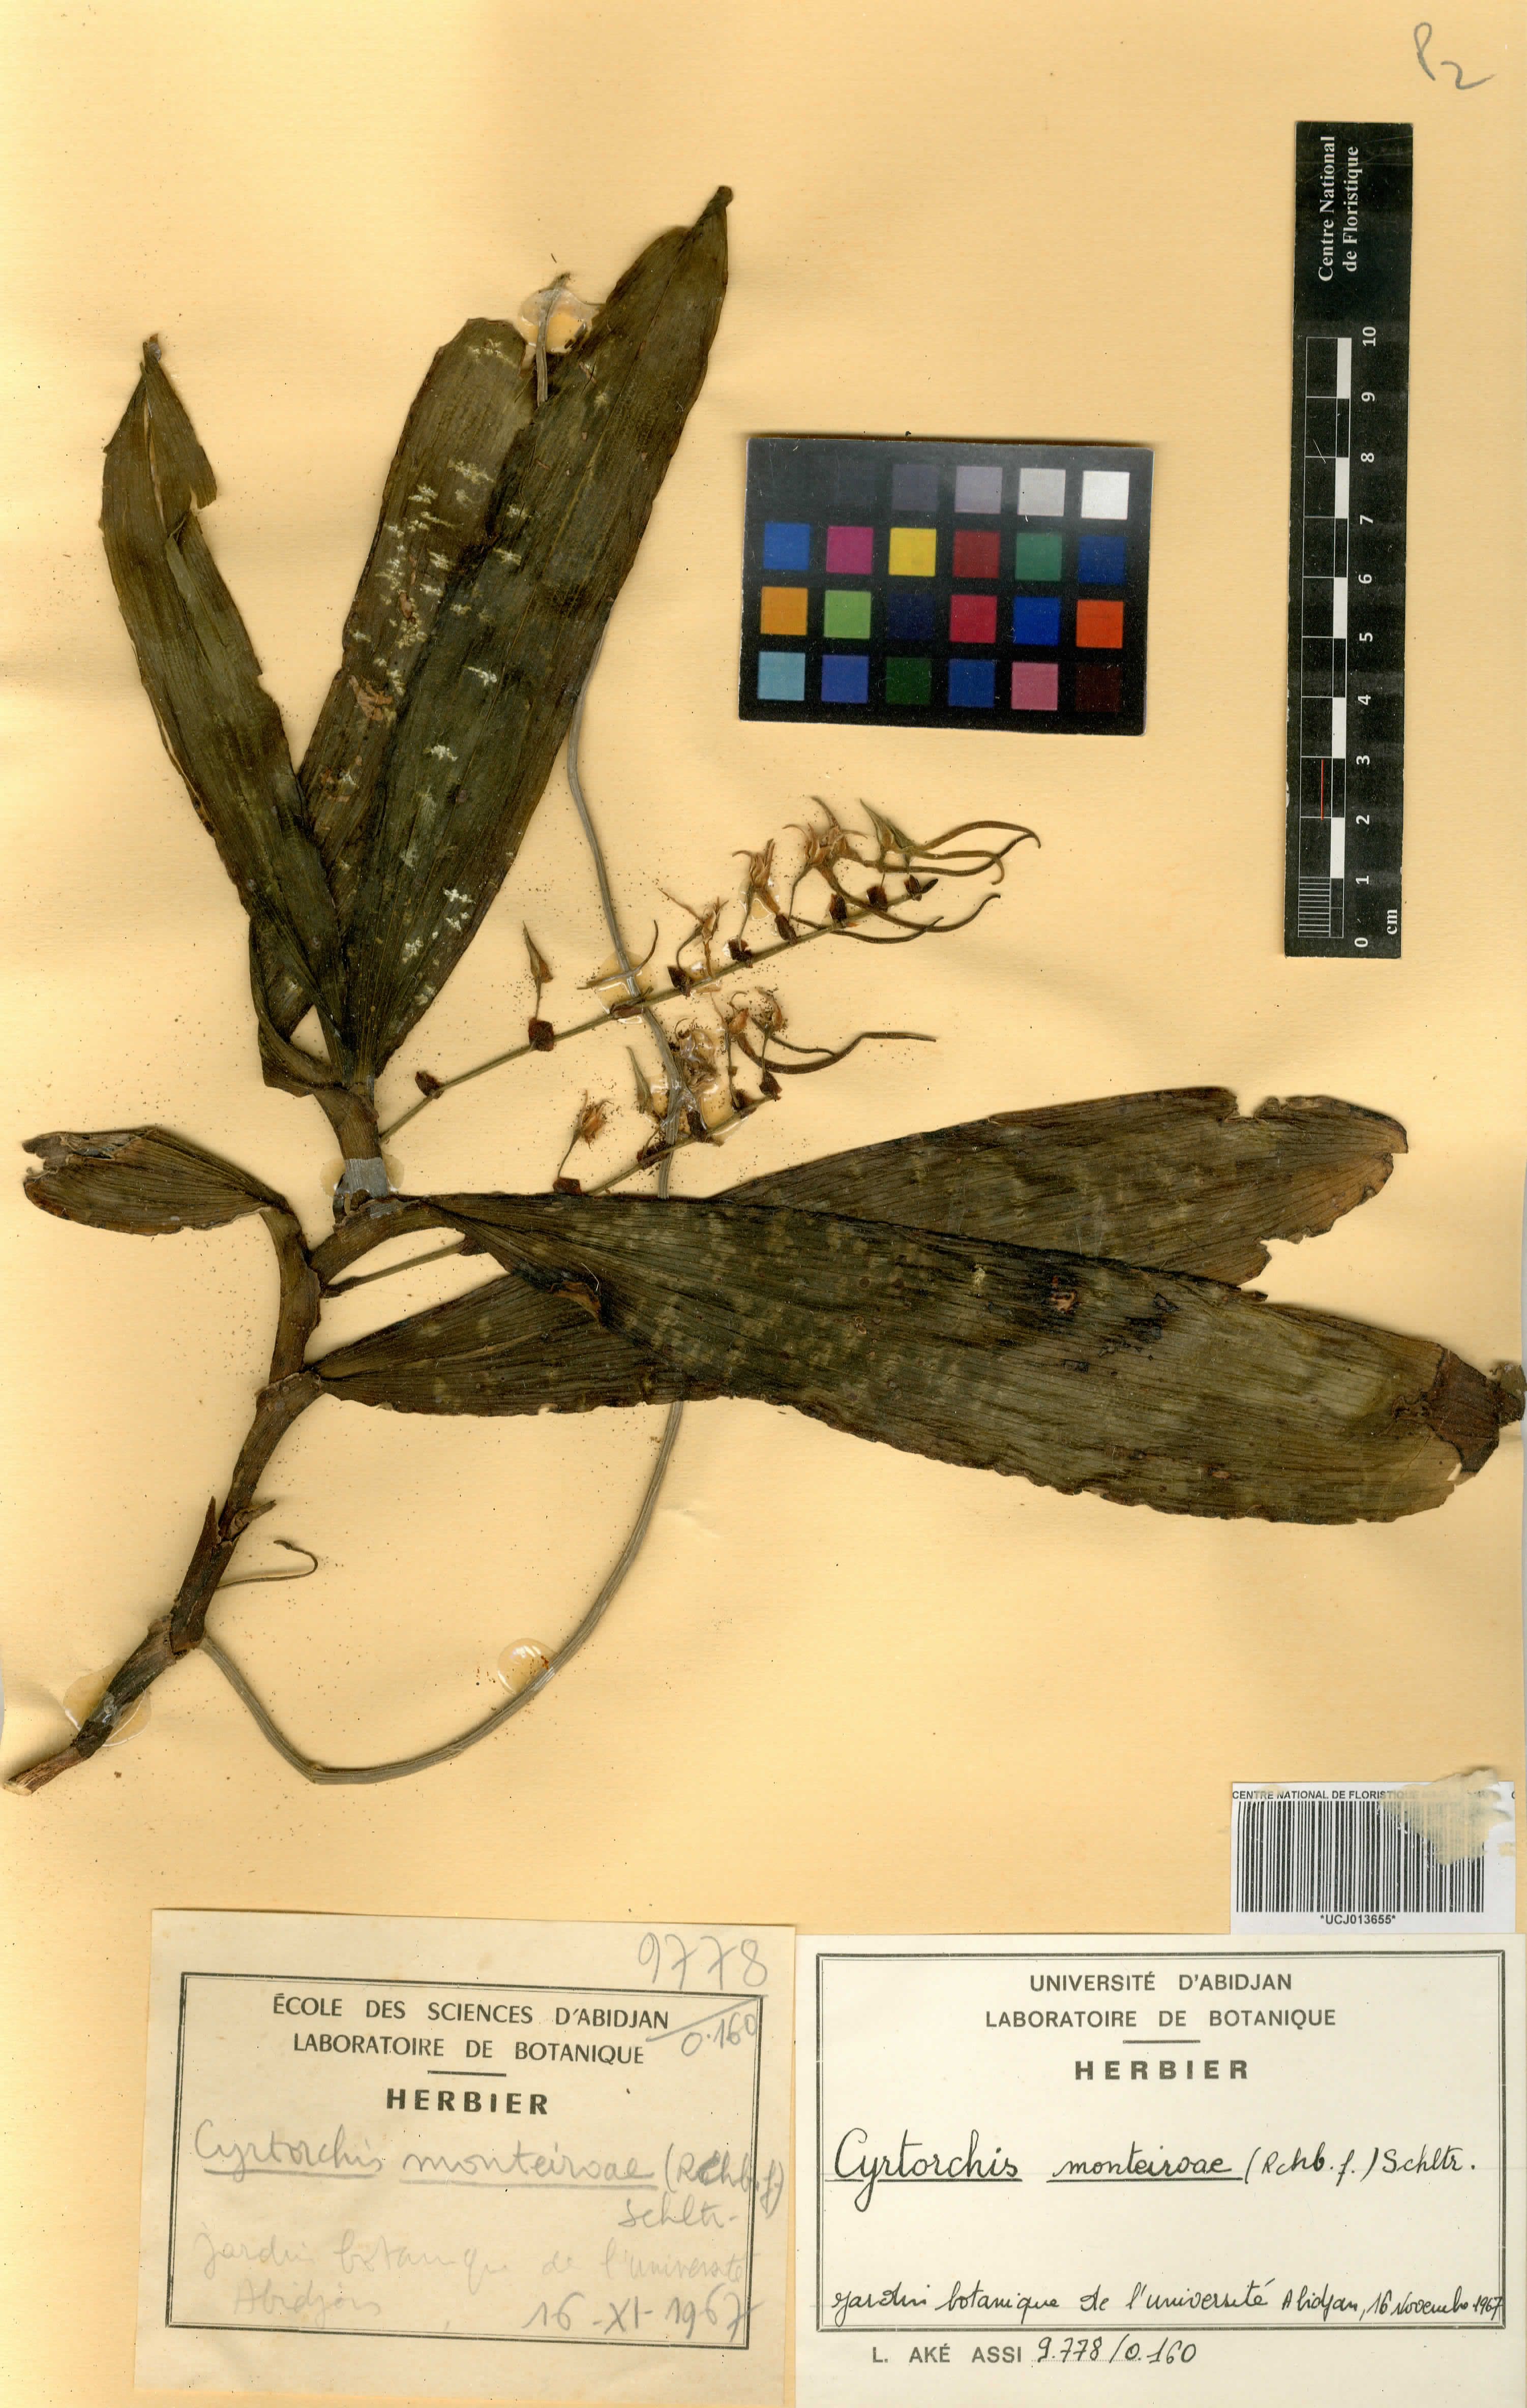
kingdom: Plantae
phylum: Tracheophyta
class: Liliopsida
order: Asparagales
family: Orchidaceae
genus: Cyrtorchis
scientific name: Cyrtorchis monteiroae
